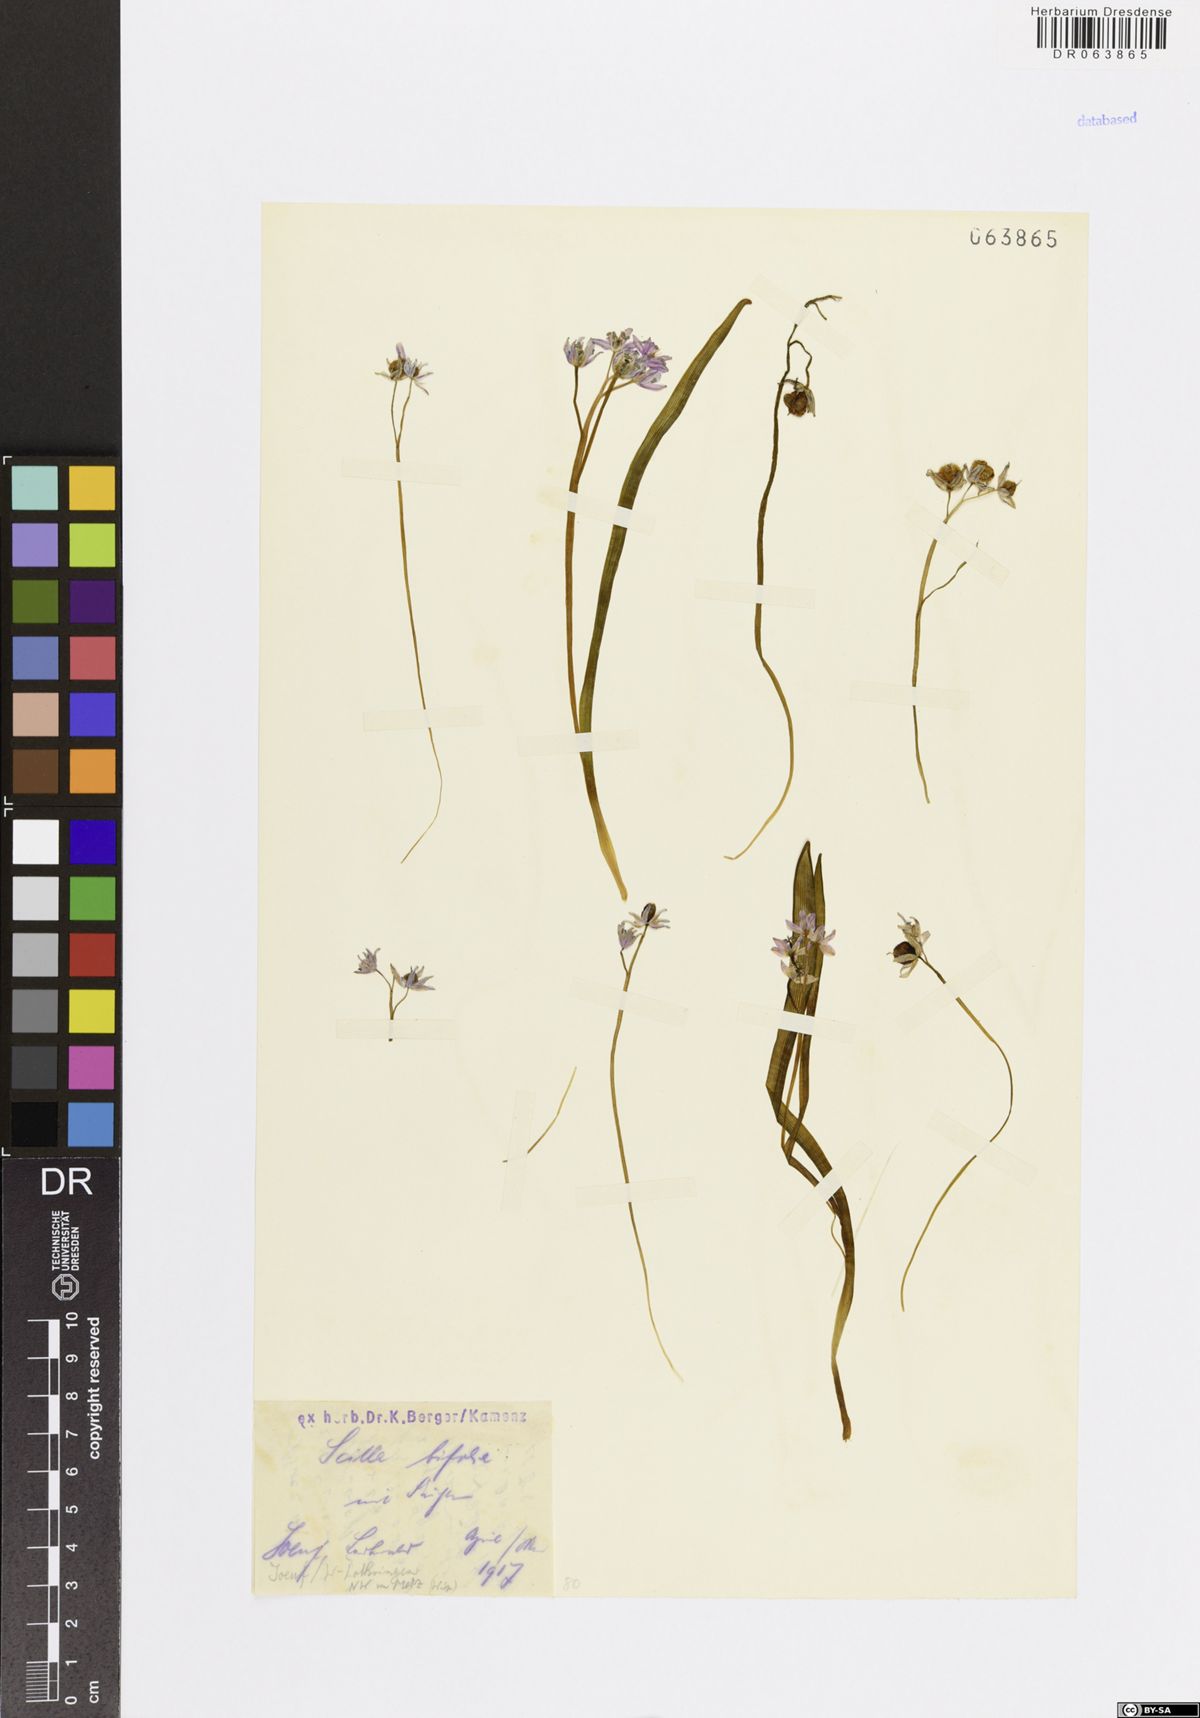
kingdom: Plantae
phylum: Tracheophyta
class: Liliopsida
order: Asparagales
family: Asparagaceae
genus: Scilla
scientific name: Scilla bifolia
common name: Alpine squill
